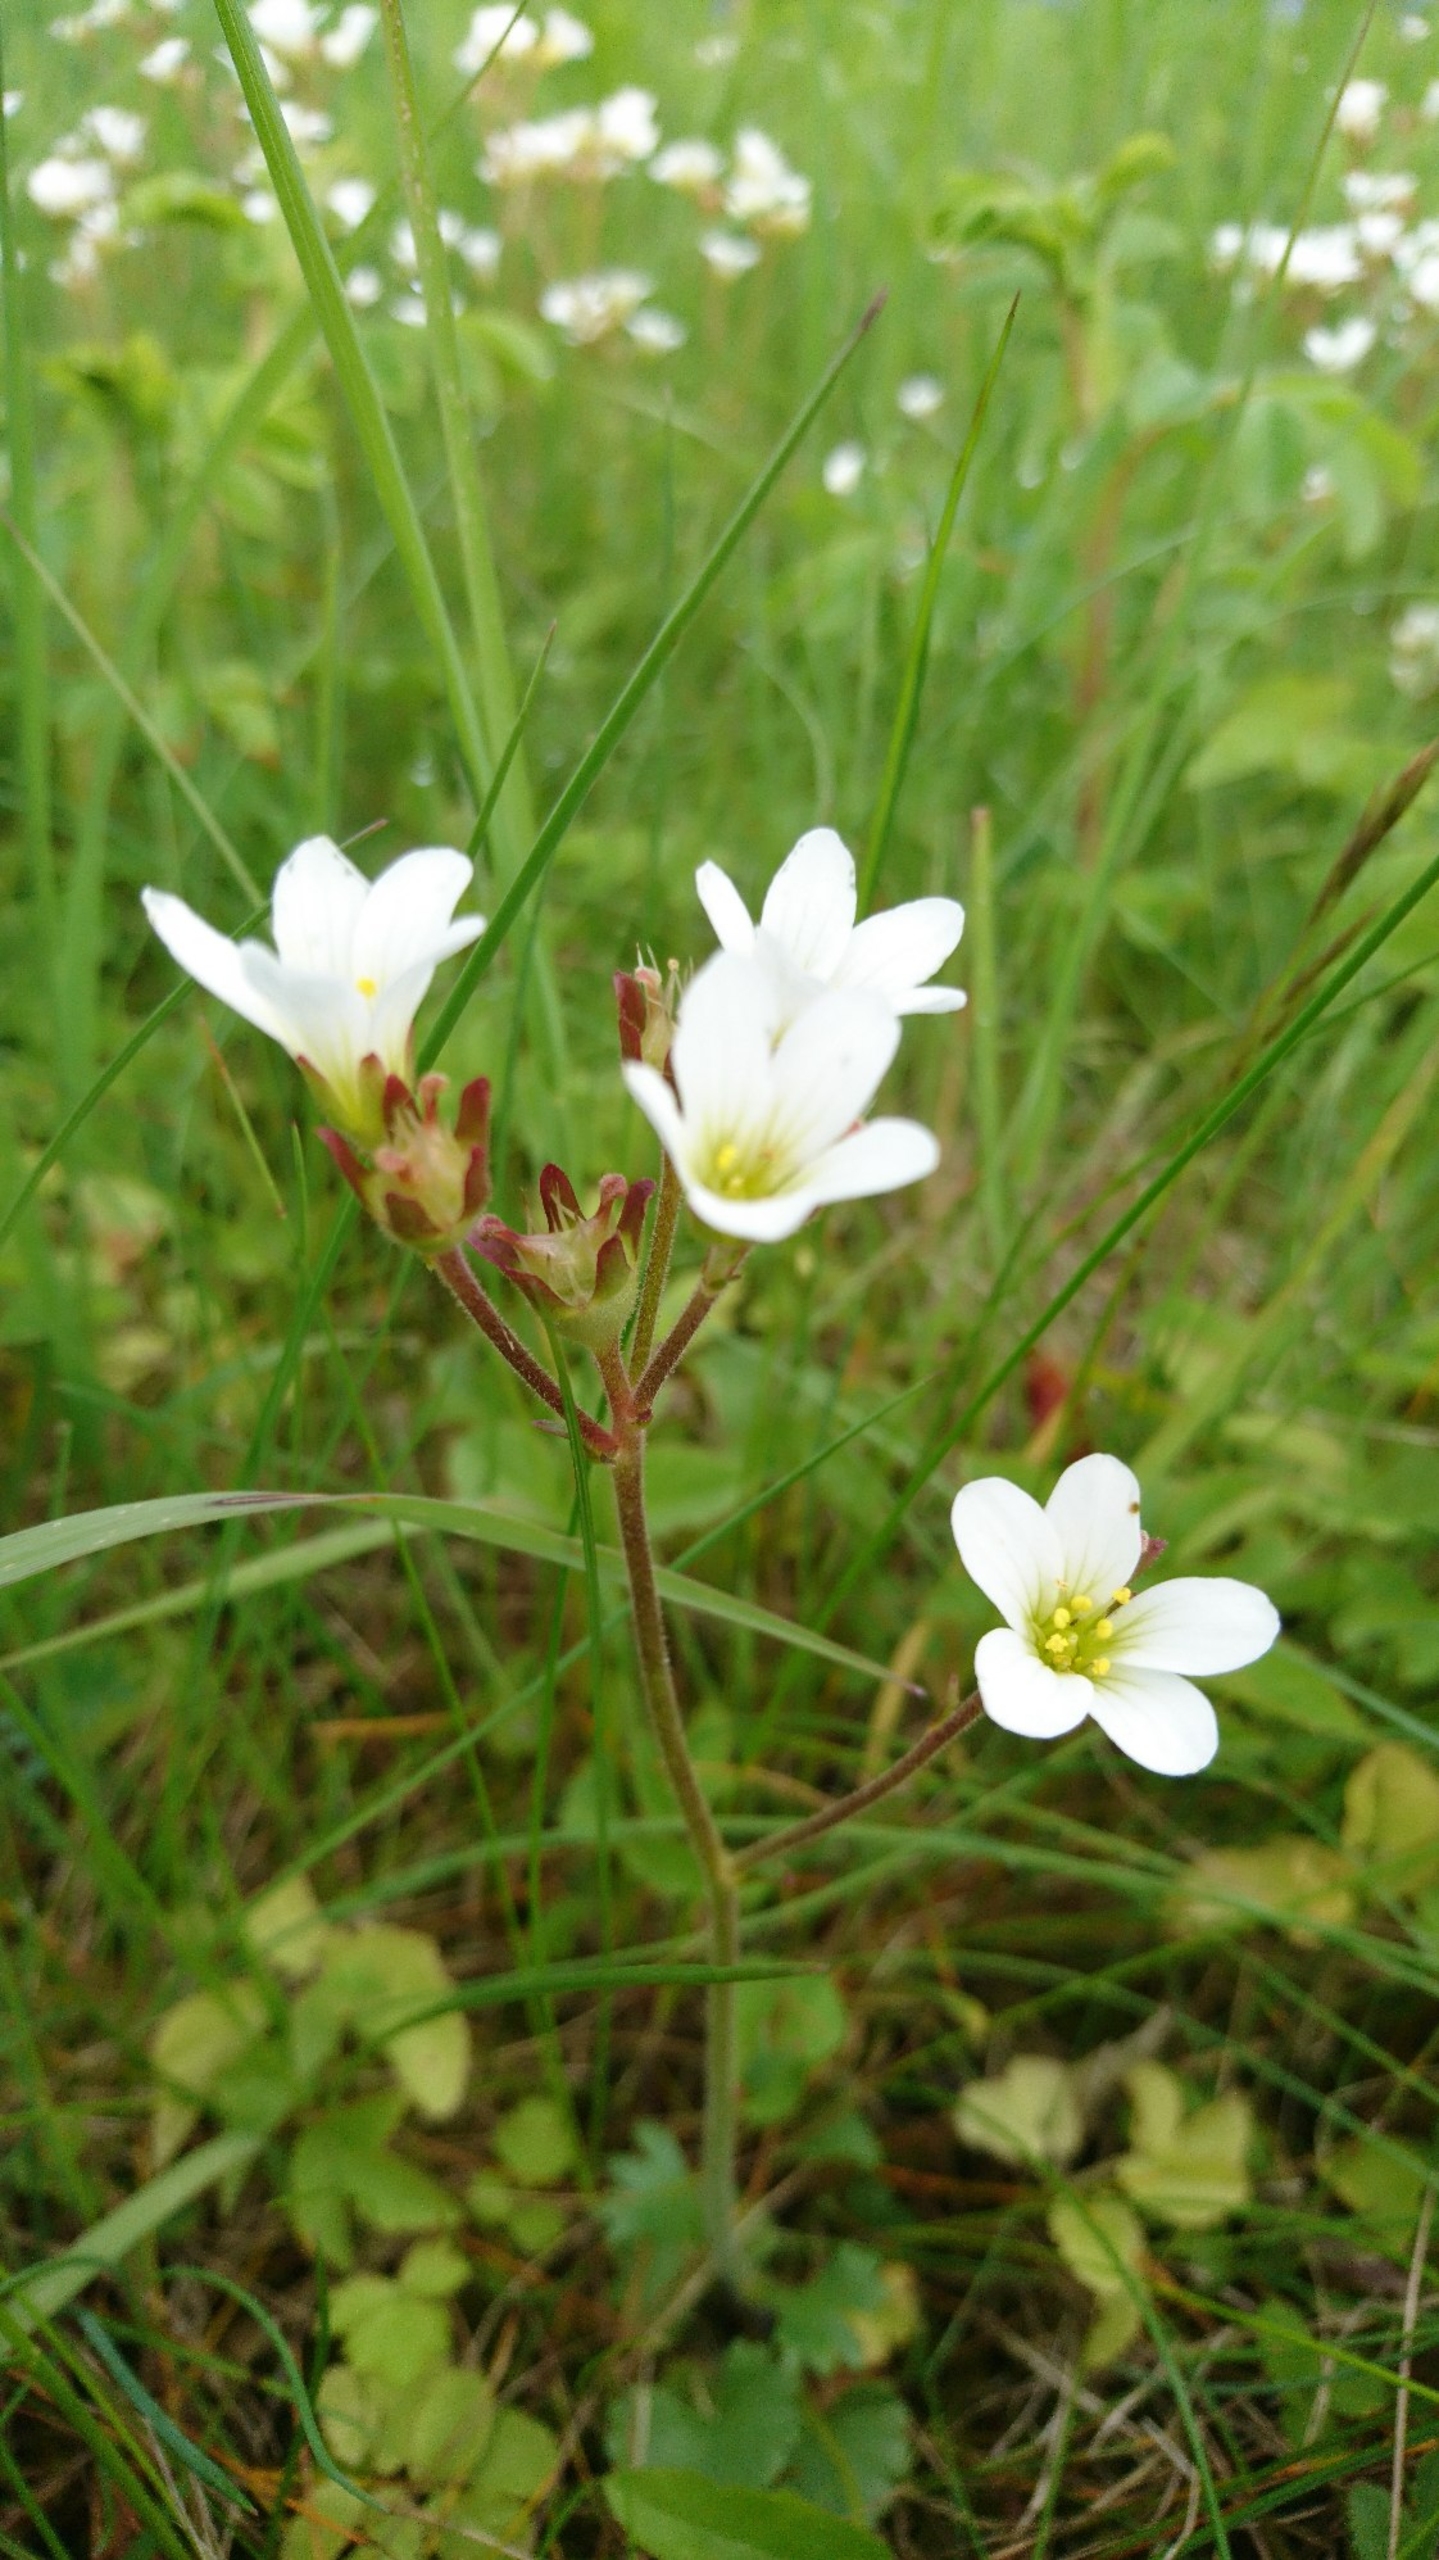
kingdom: Plantae
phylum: Tracheophyta
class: Magnoliopsida
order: Saxifragales
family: Saxifragaceae
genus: Saxifraga
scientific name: Saxifraga granulata
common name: Kornet stenbræk
